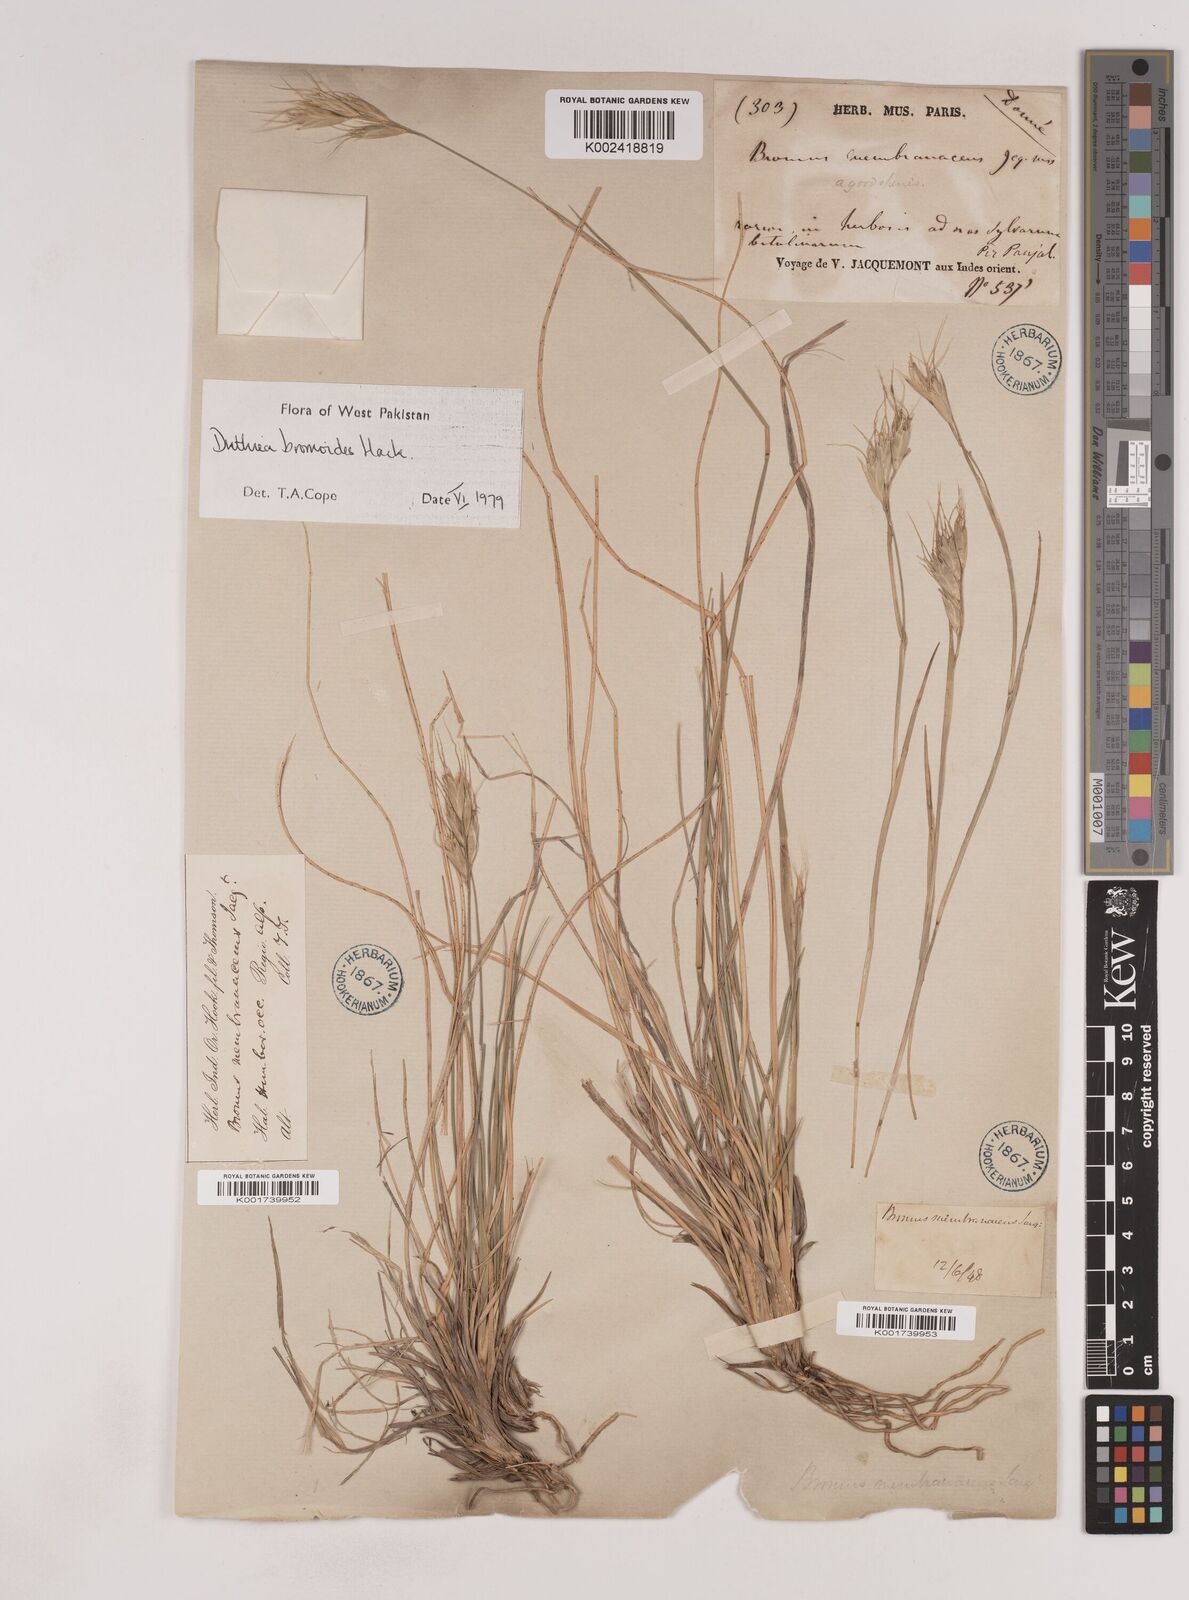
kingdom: Plantae
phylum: Tracheophyta
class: Liliopsida
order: Poales
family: Poaceae
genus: Duthiea
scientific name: Duthiea bromoides
